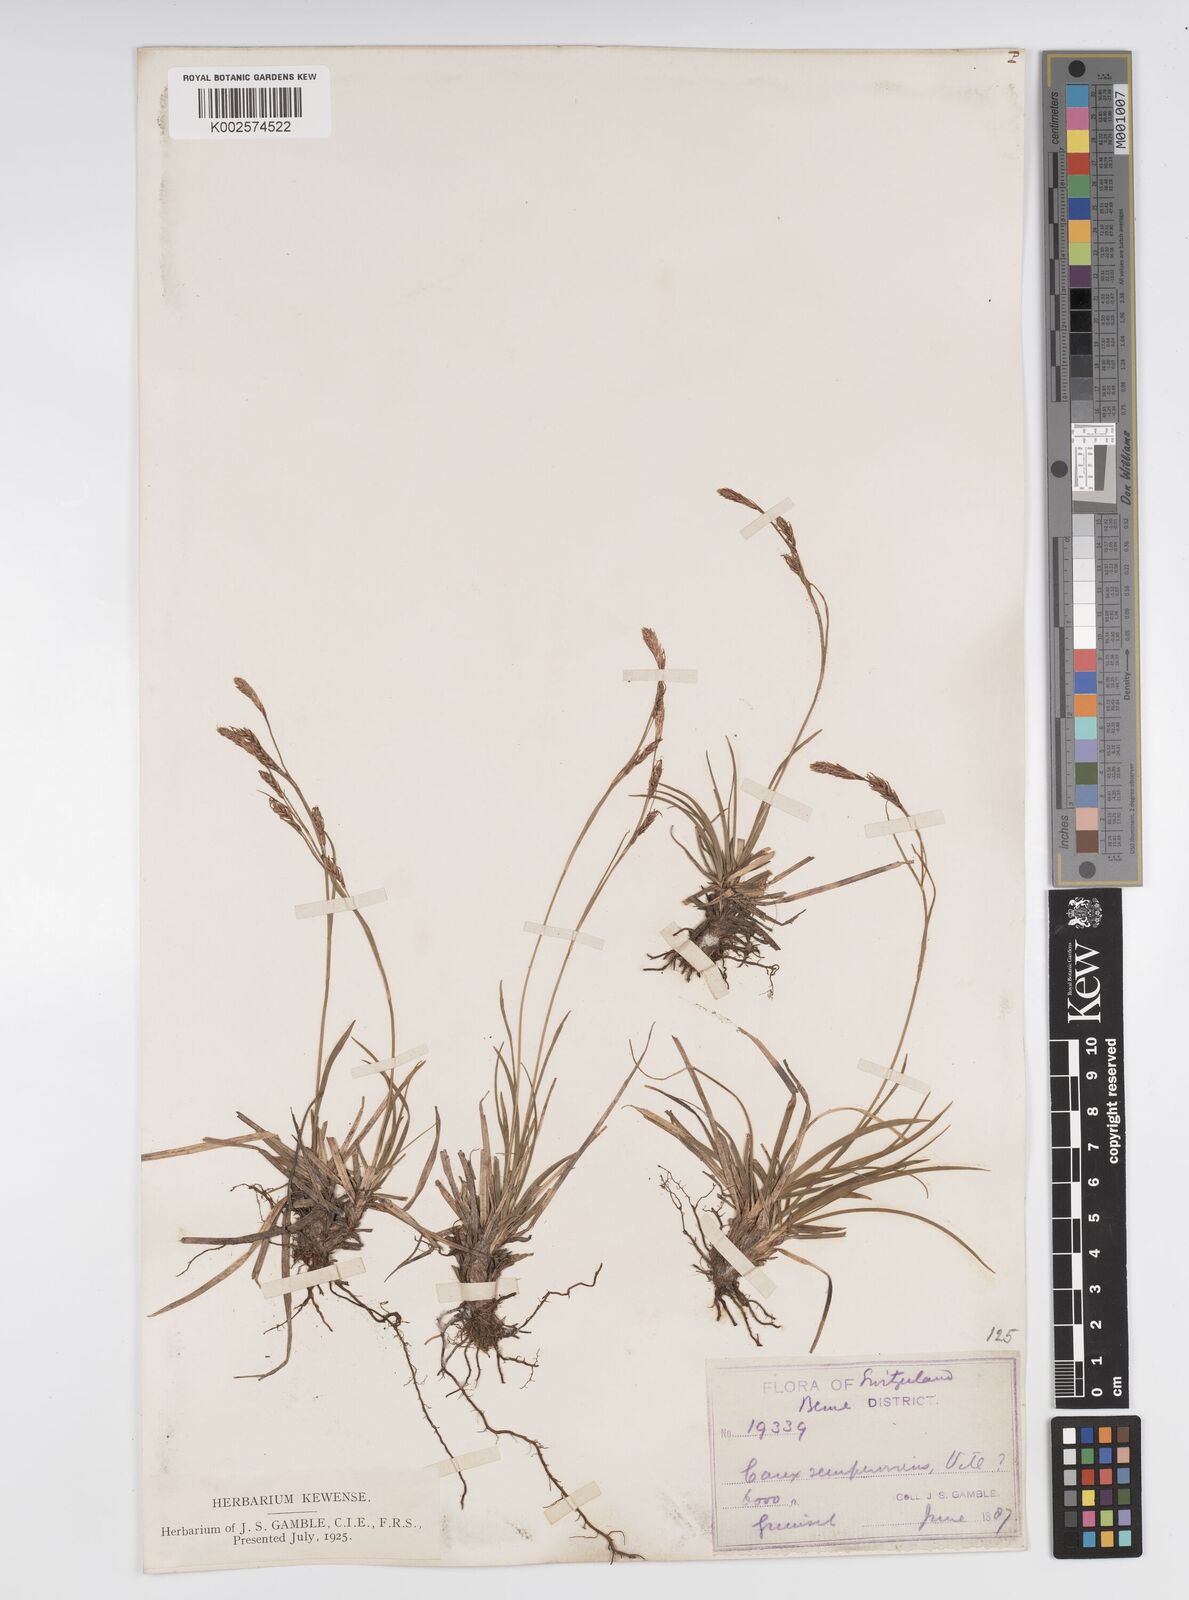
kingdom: Plantae
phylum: Tracheophyta
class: Liliopsida
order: Poales
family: Cyperaceae
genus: Carex
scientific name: Carex sempervirens
